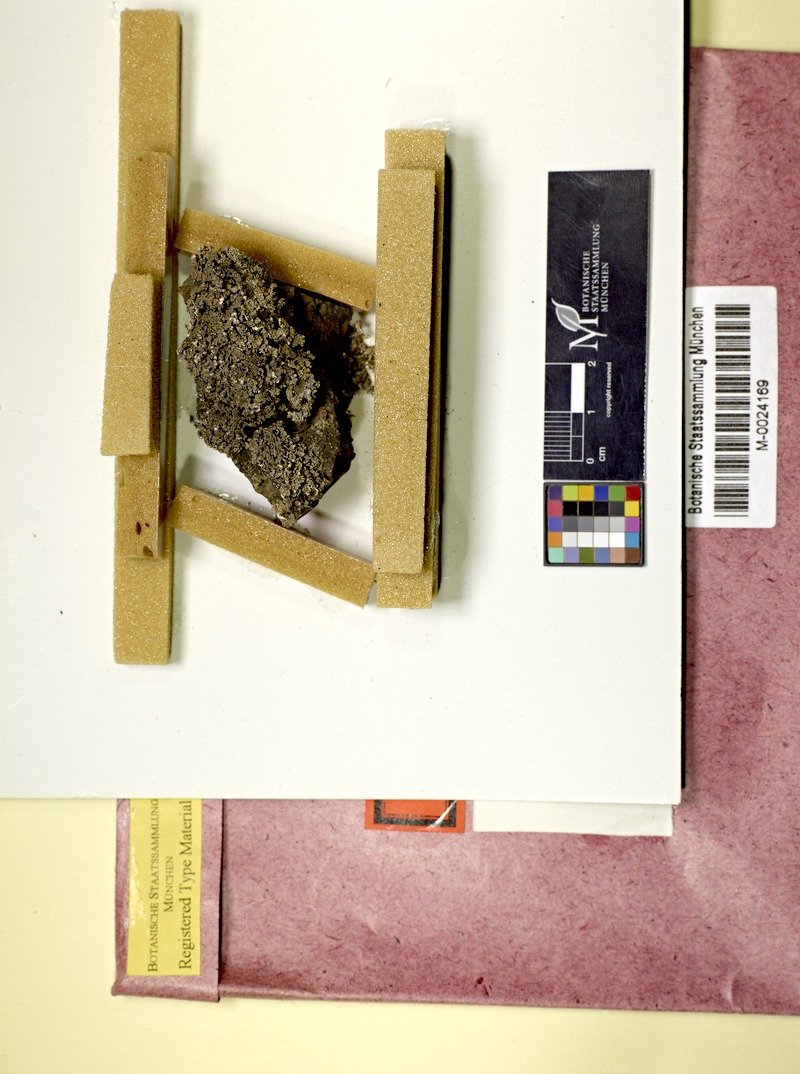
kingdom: Fungi
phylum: Ascomycota
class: Lecanoromycetes
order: Lecanorales
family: Stereocaulaceae
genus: Stereocaulon
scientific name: Stereocaulon vesuvianum
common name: Variegated foam lichen
